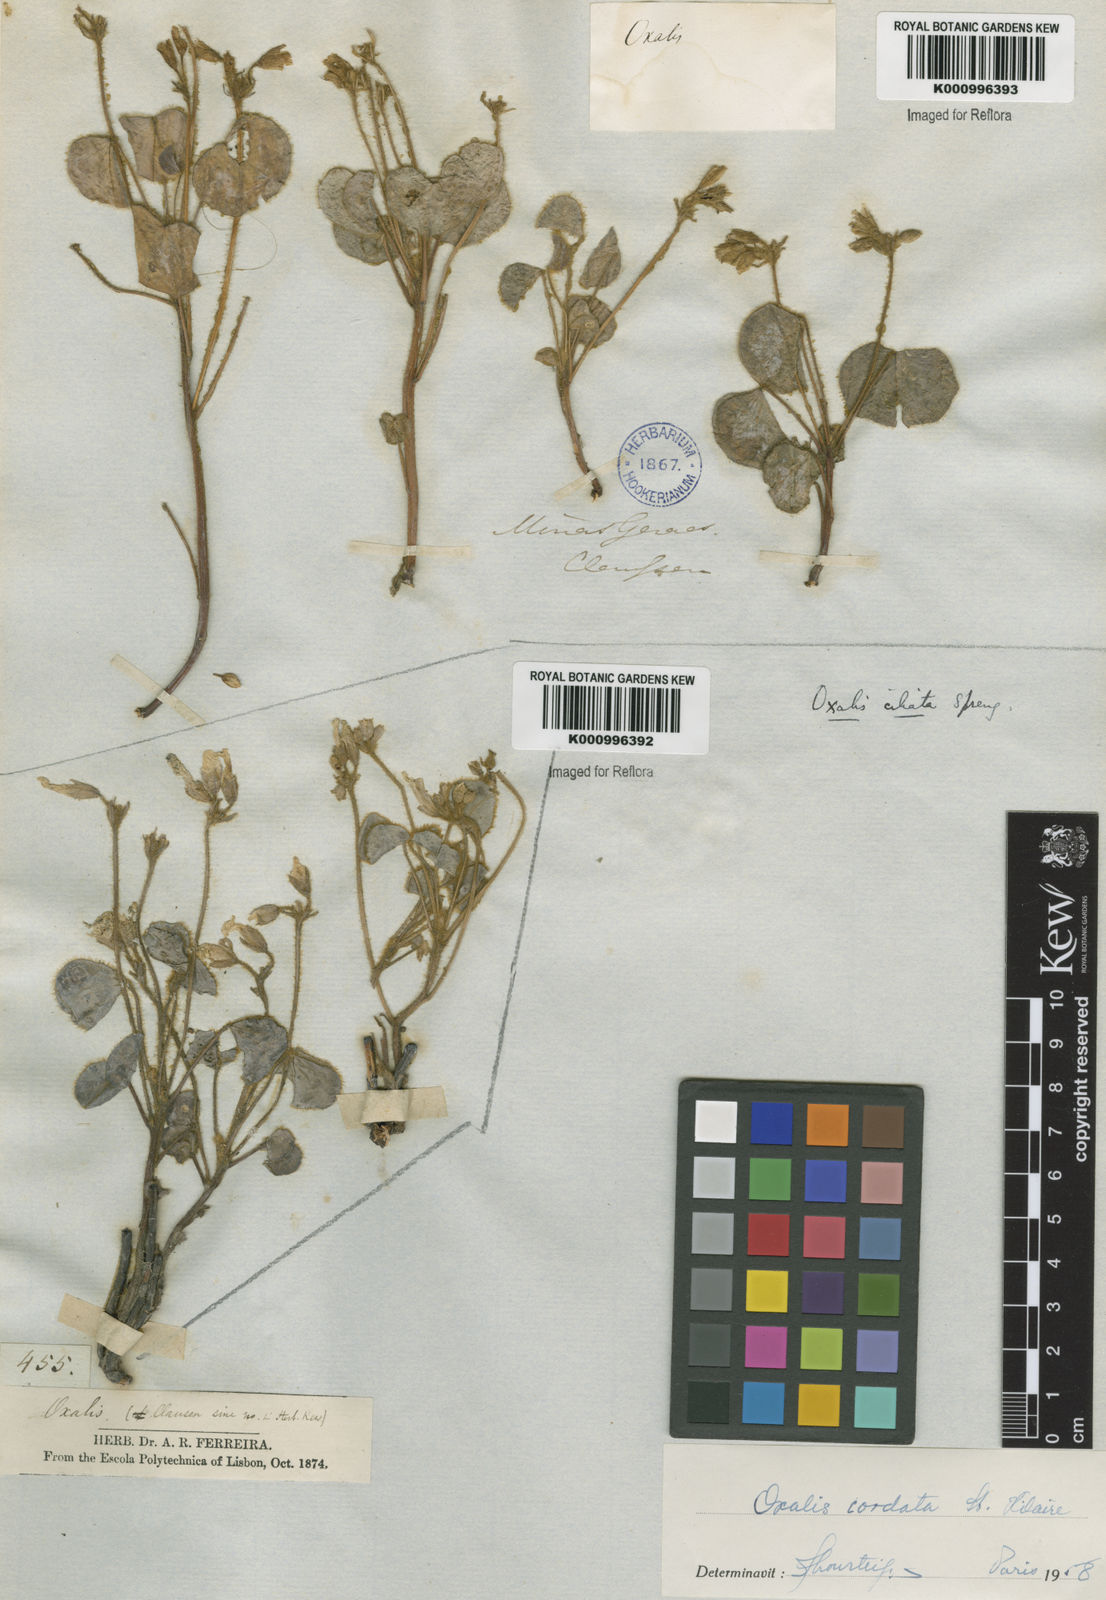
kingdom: Plantae
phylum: Tracheophyta
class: Magnoliopsida
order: Oxalidales
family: Oxalidaceae
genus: Oxalis
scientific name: Oxalis cordata
